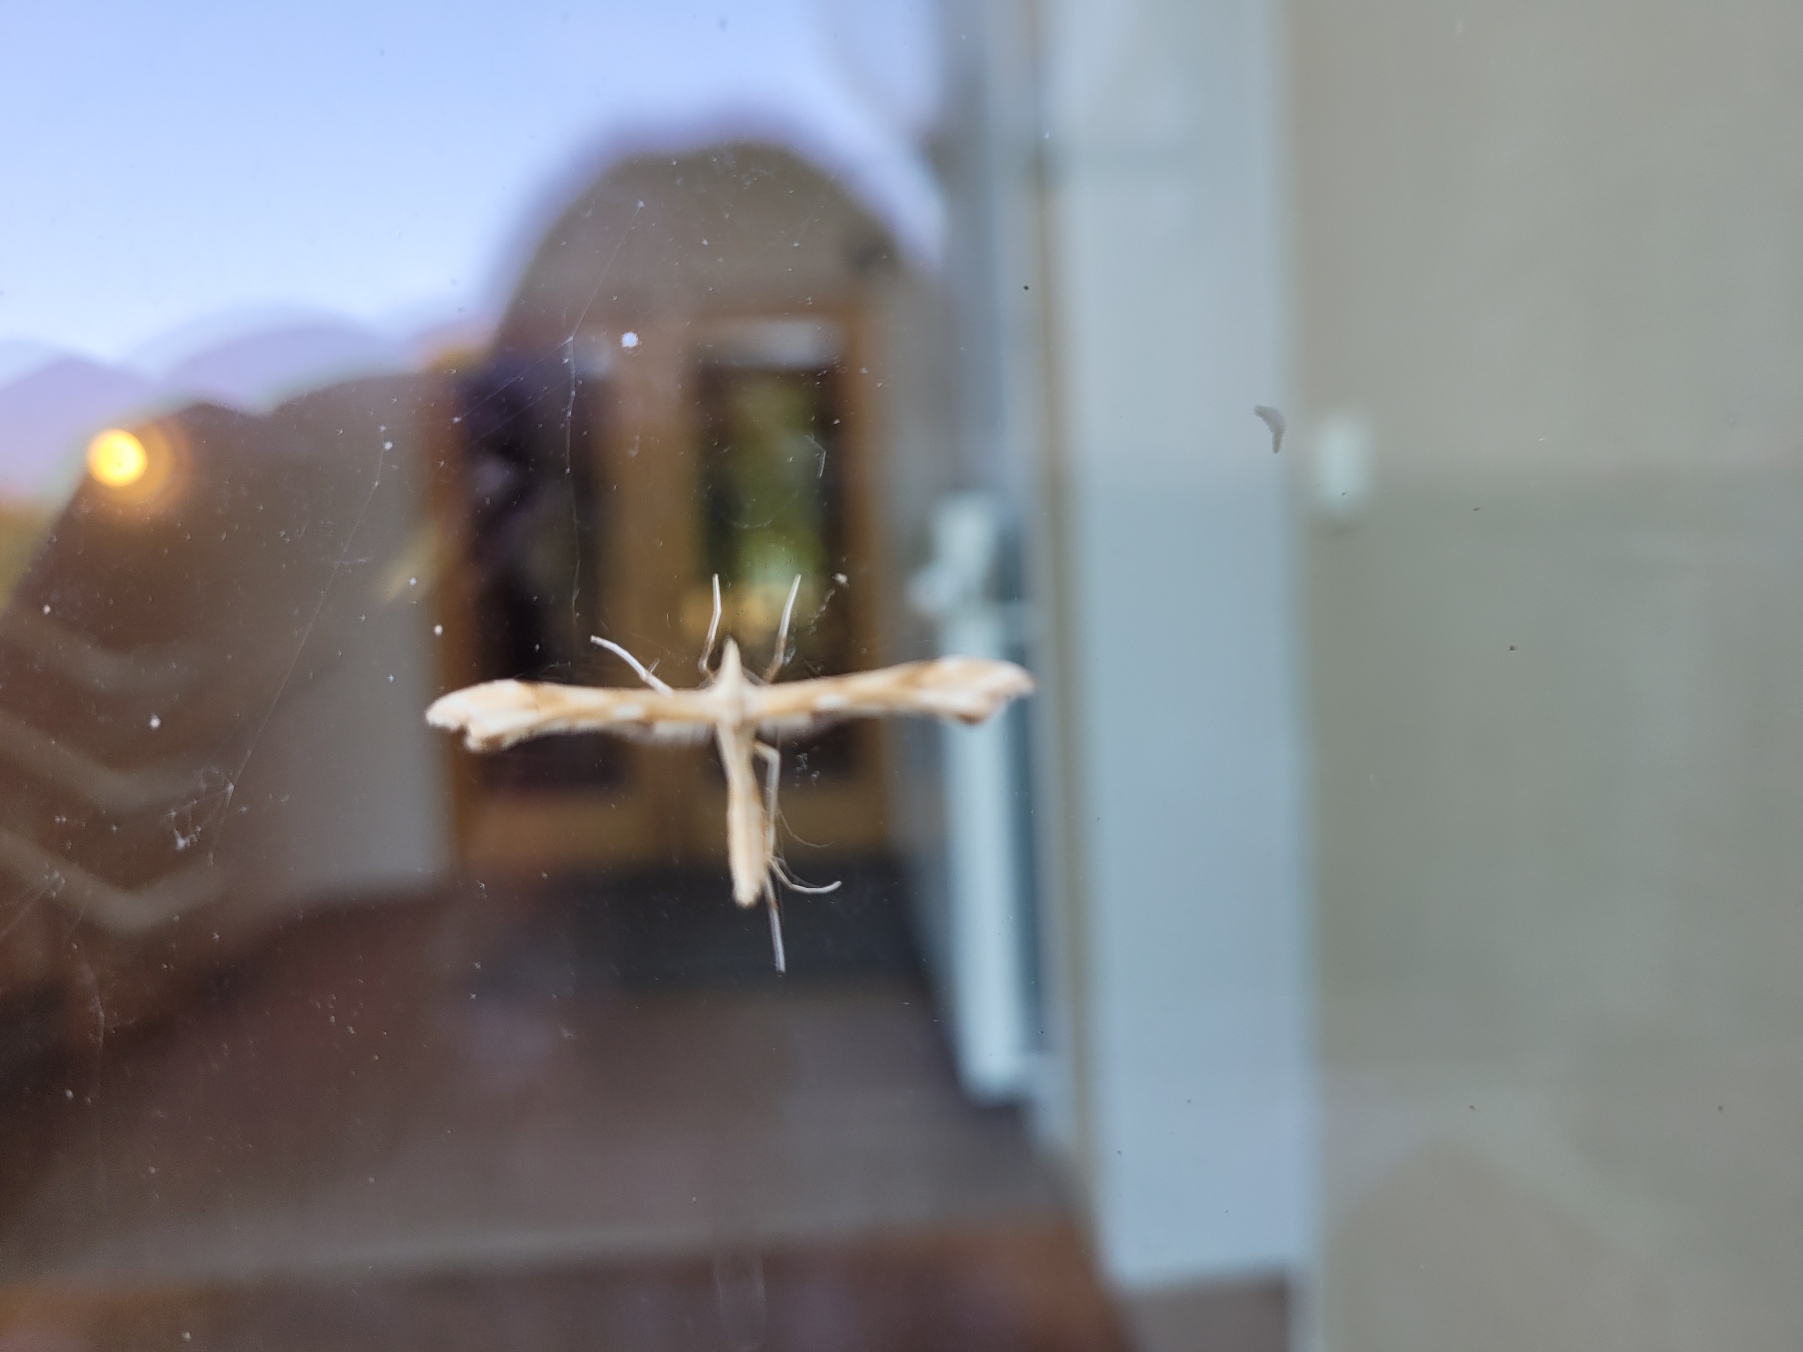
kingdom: Animalia
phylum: Arthropoda
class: Insecta
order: Lepidoptera
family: Pterophoridae
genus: Gillmeria
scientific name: Gillmeria pallidactyla
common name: Røllikefjermøl
